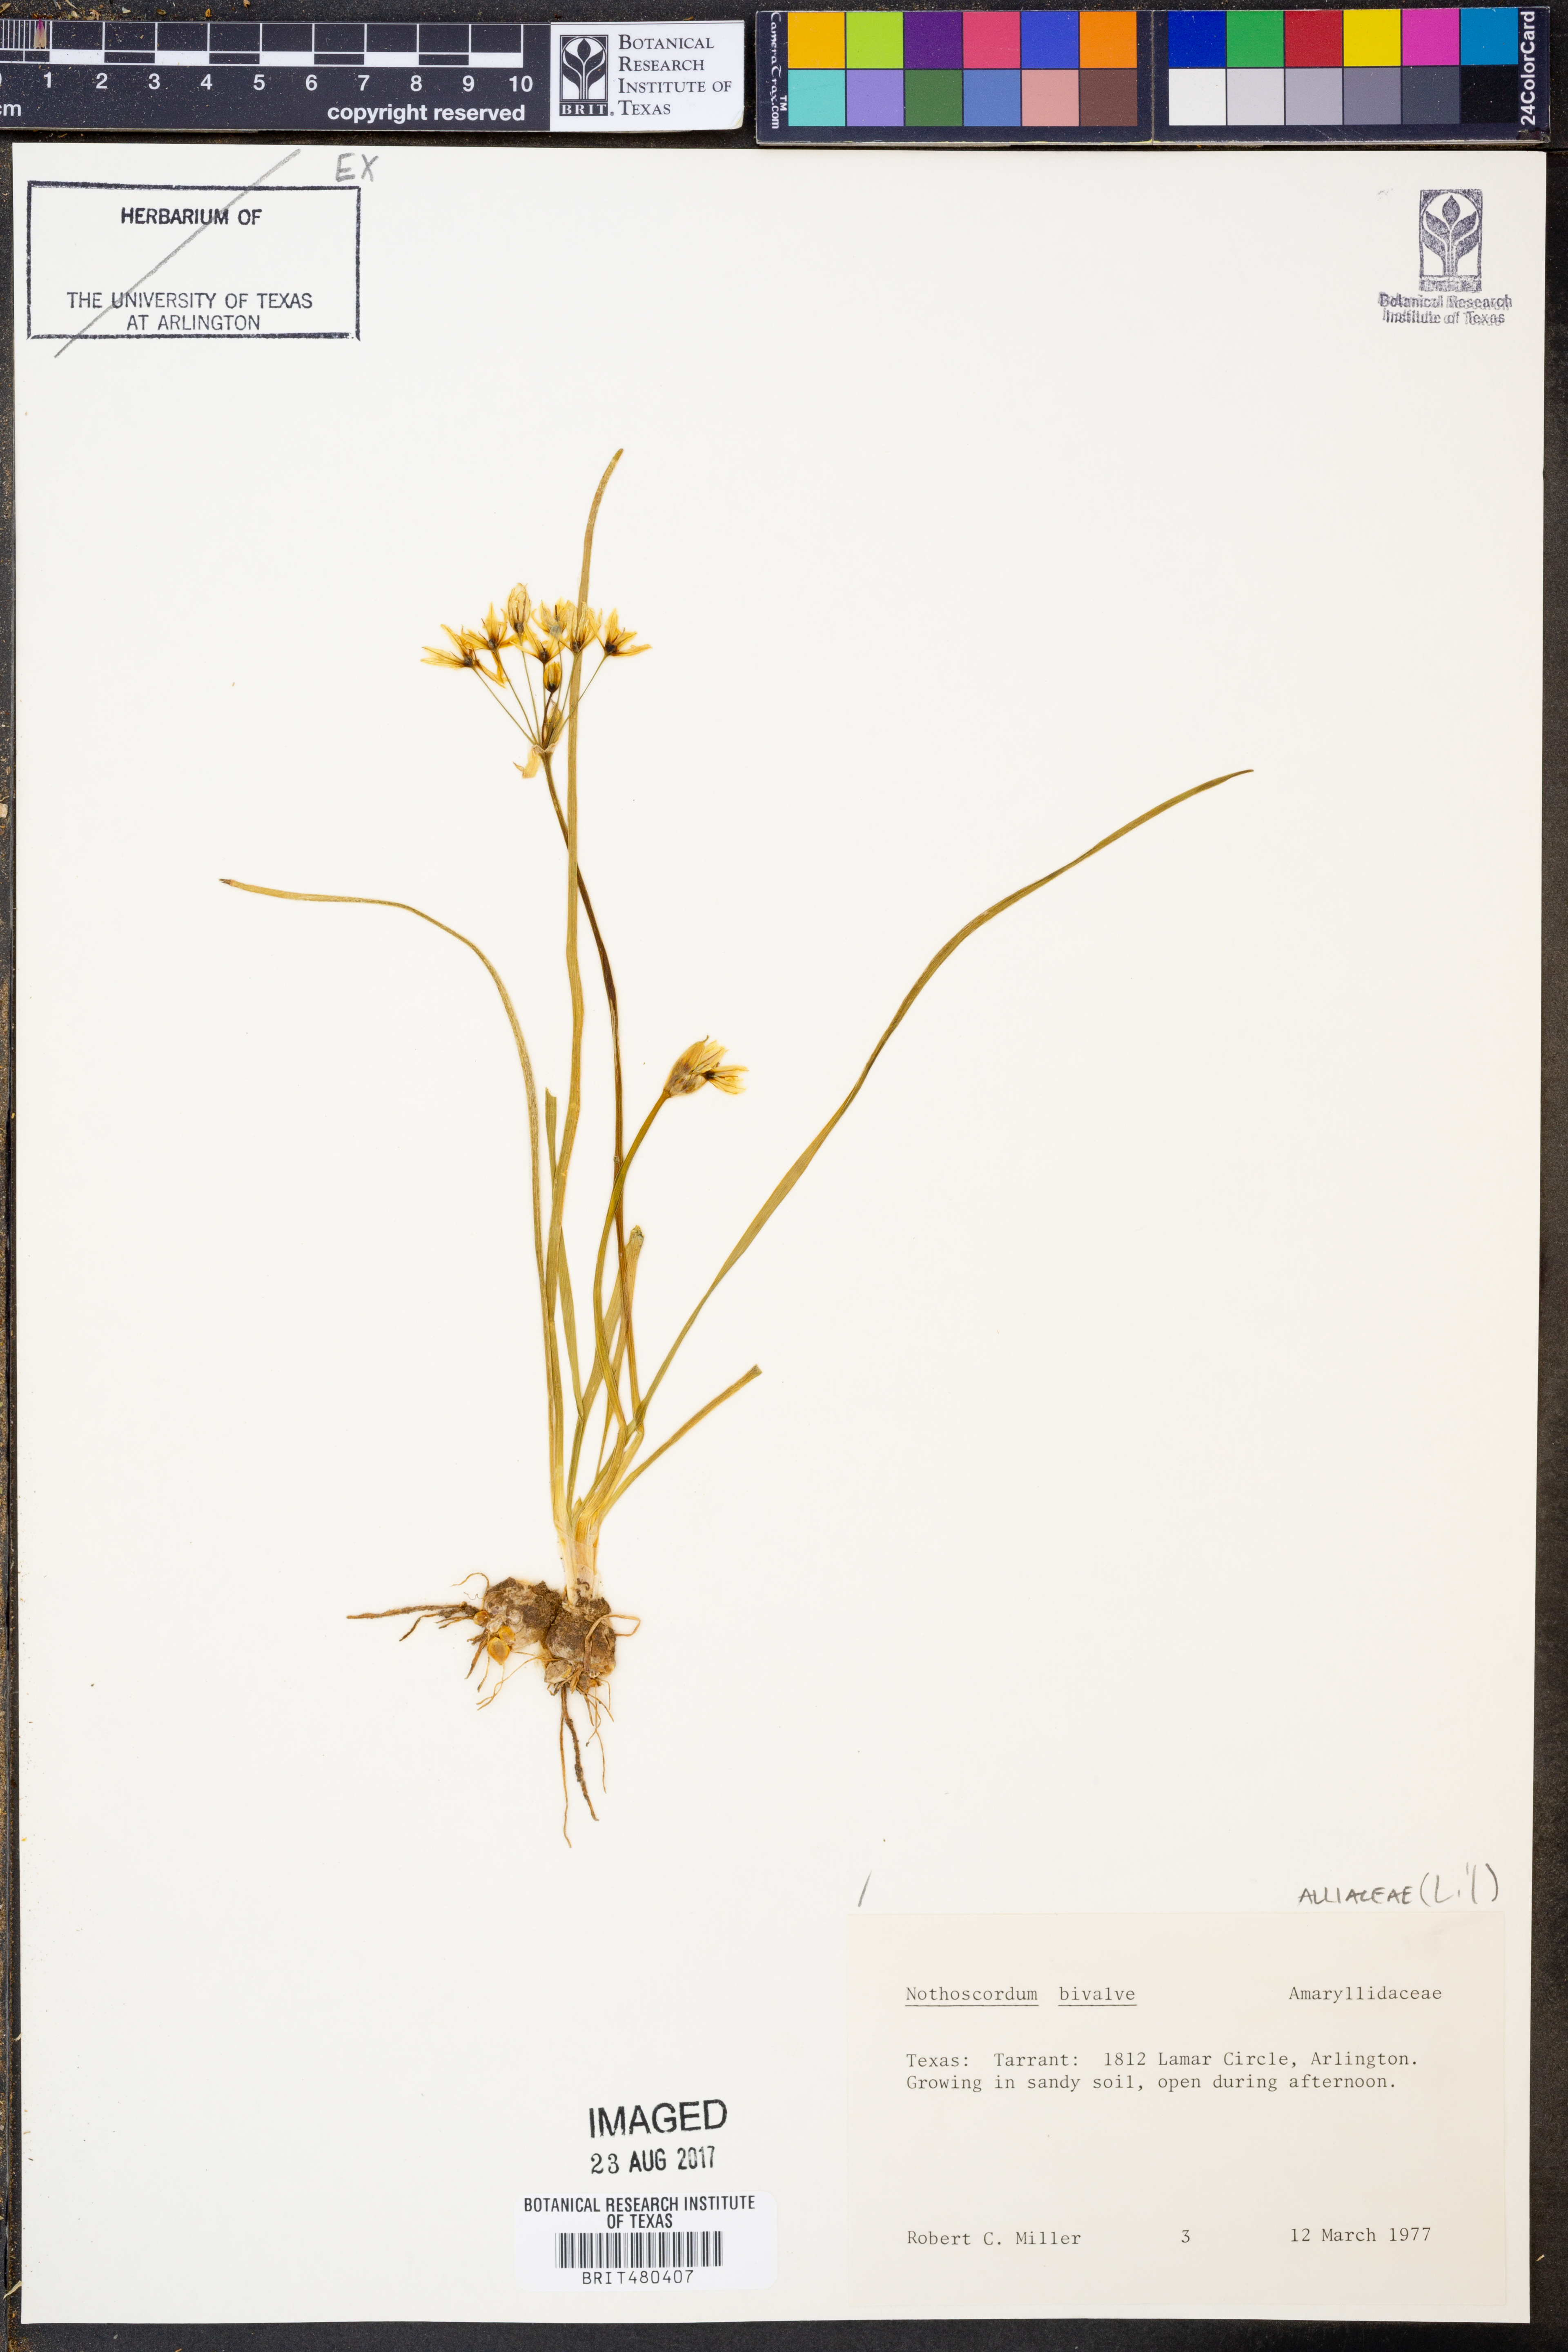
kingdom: Plantae
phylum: Tracheophyta
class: Liliopsida
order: Asparagales
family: Amaryllidaceae
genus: Nothoscordum
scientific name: Nothoscordum bivalve
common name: Crow-poison
